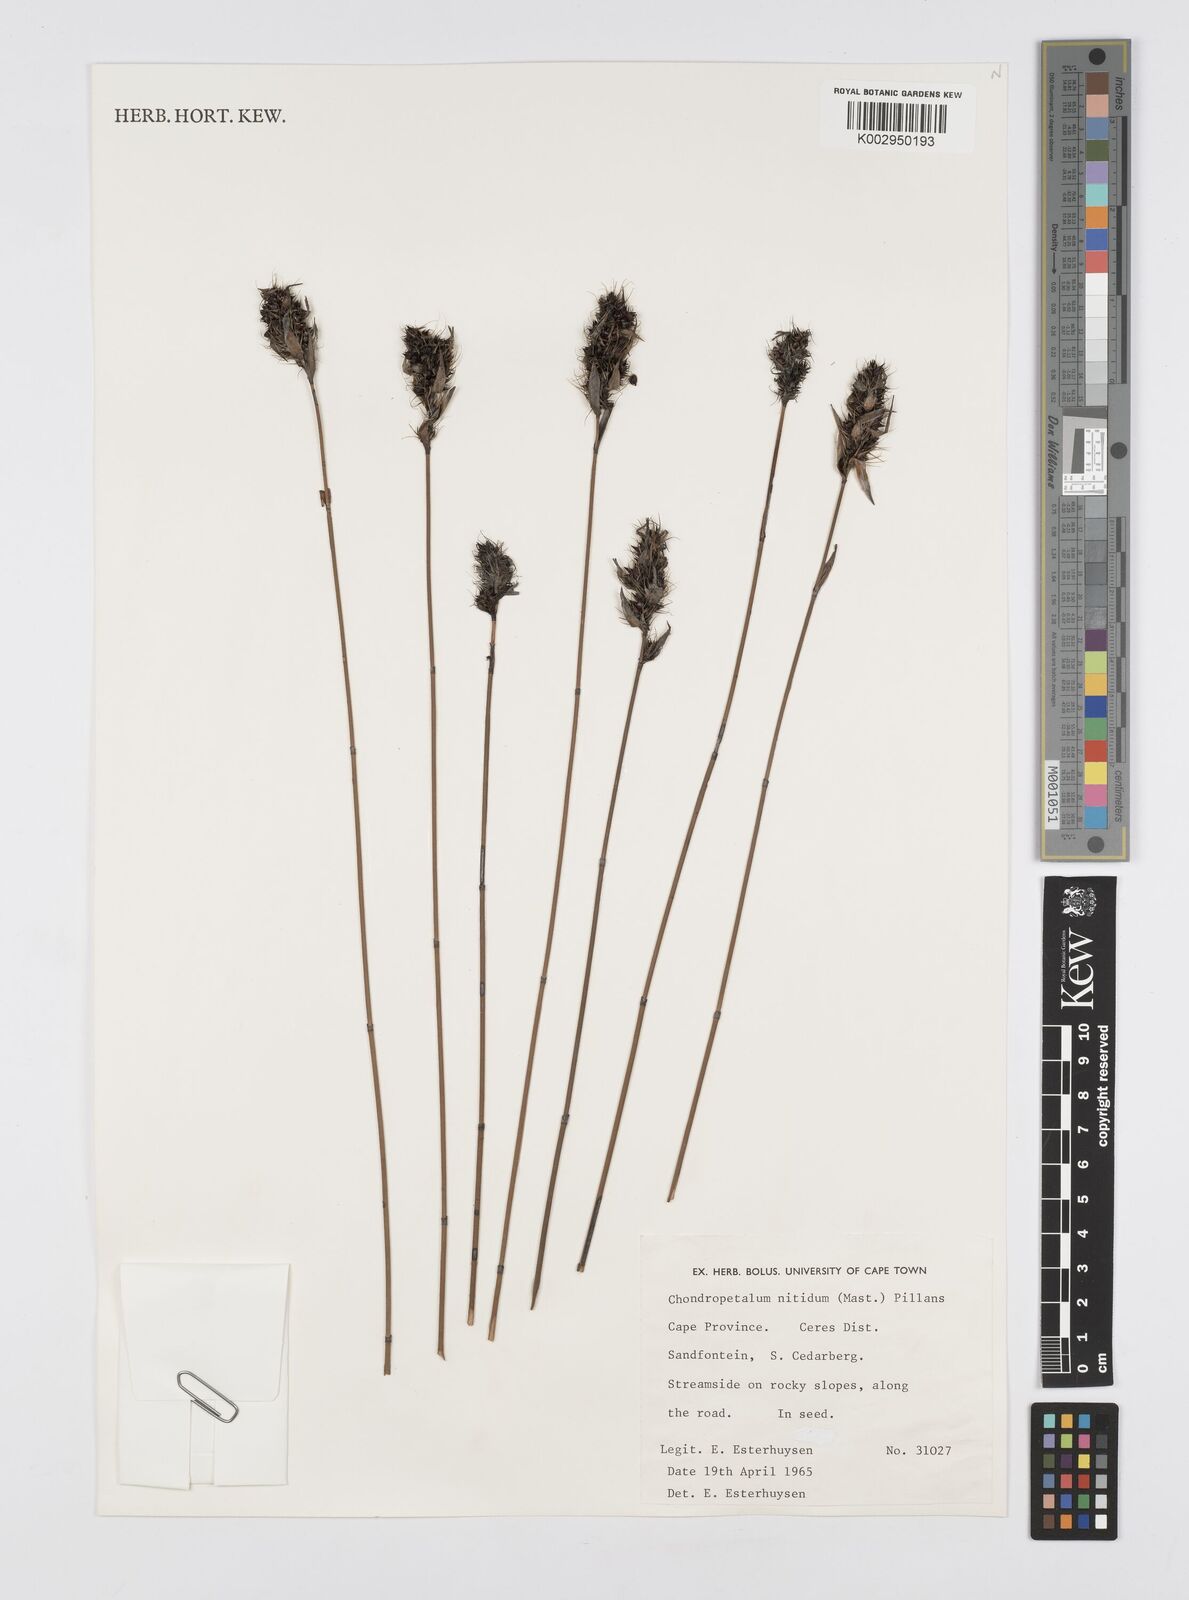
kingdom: Plantae
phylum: Tracheophyta
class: Liliopsida
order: Poales
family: Restionaceae
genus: Askidiosperma
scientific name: Askidiosperma nitidum
